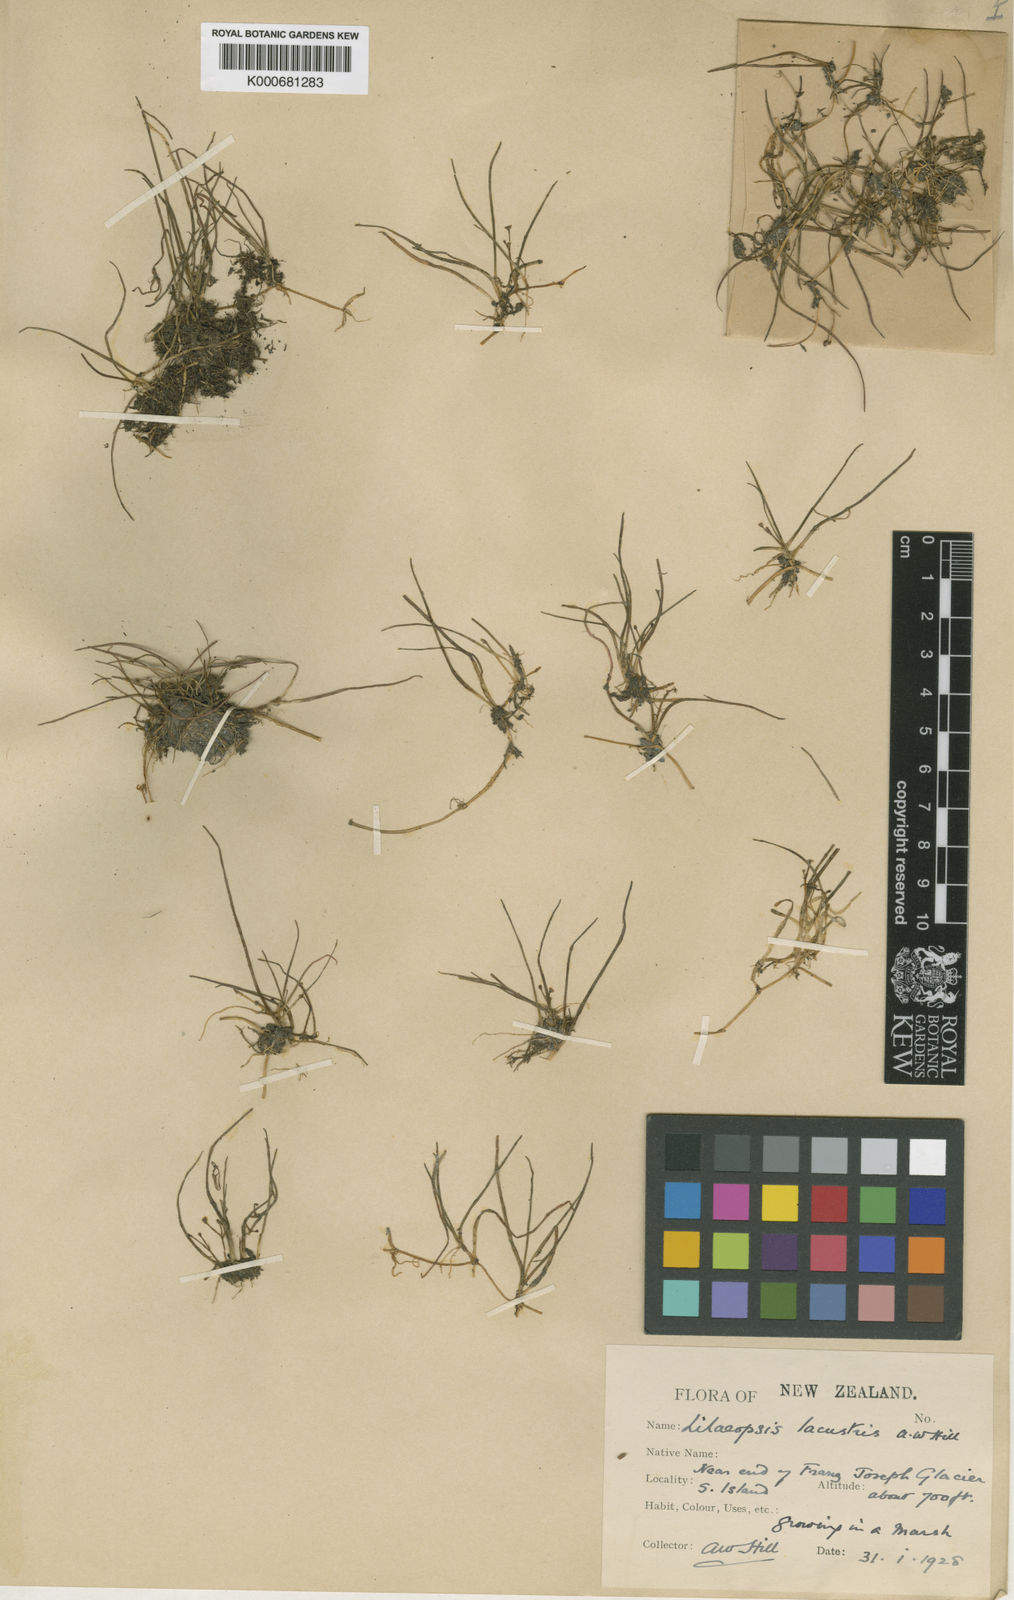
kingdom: Plantae
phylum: Tracheophyta
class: Magnoliopsida
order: Apiales
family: Apiaceae
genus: Lilaeopsis
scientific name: Lilaeopsis novae-zelandiae
